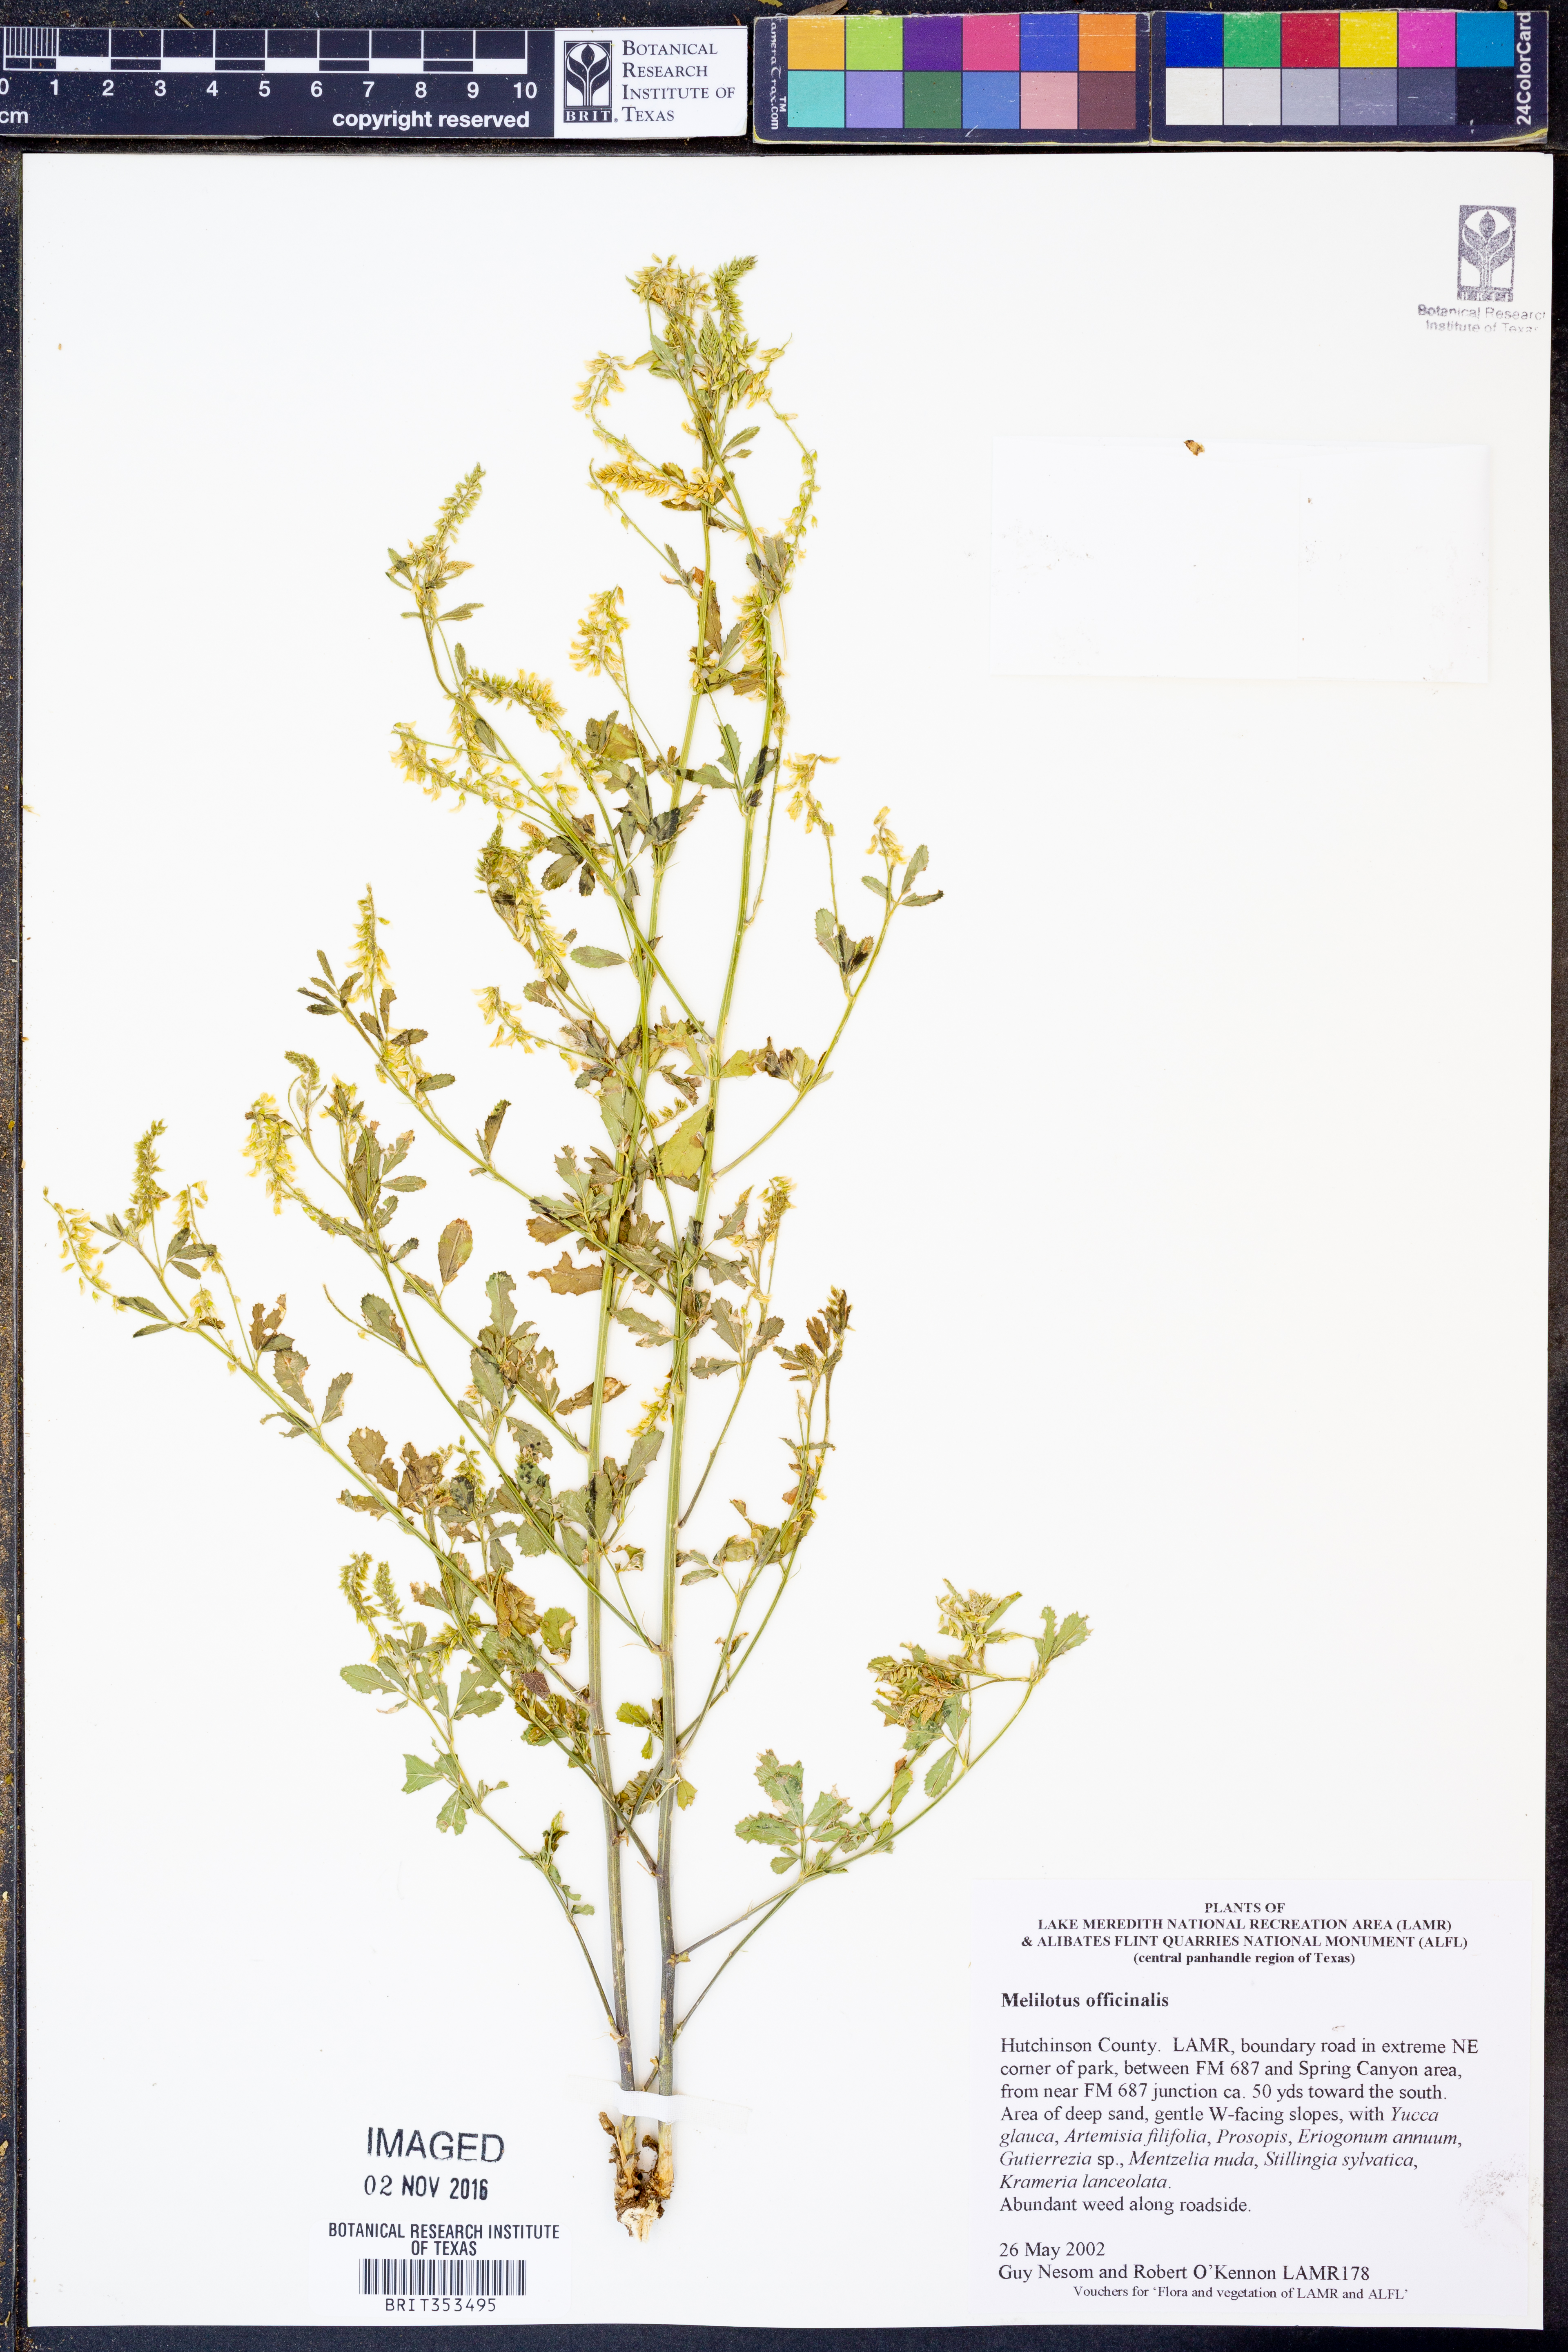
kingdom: Plantae
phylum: Tracheophyta
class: Magnoliopsida
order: Fabales
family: Fabaceae
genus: Melilotus
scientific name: Melilotus officinalis
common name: Sweetclover
